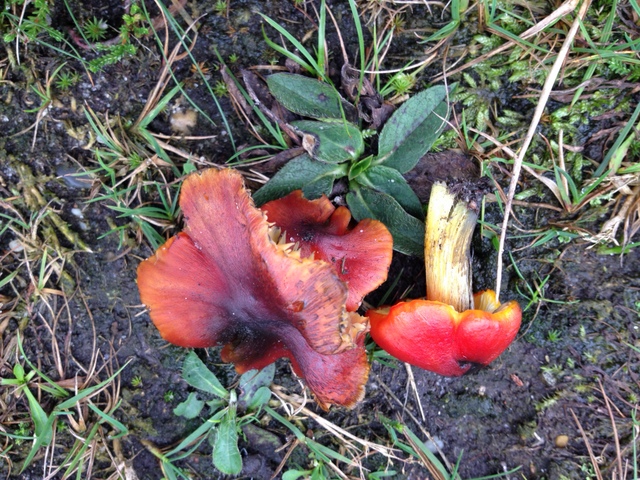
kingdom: Fungi
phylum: Basidiomycota
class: Agaricomycetes
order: Agaricales
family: Hygrophoraceae
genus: Hygrocybe
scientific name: Hygrocybe conica
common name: kegle-vokshat
